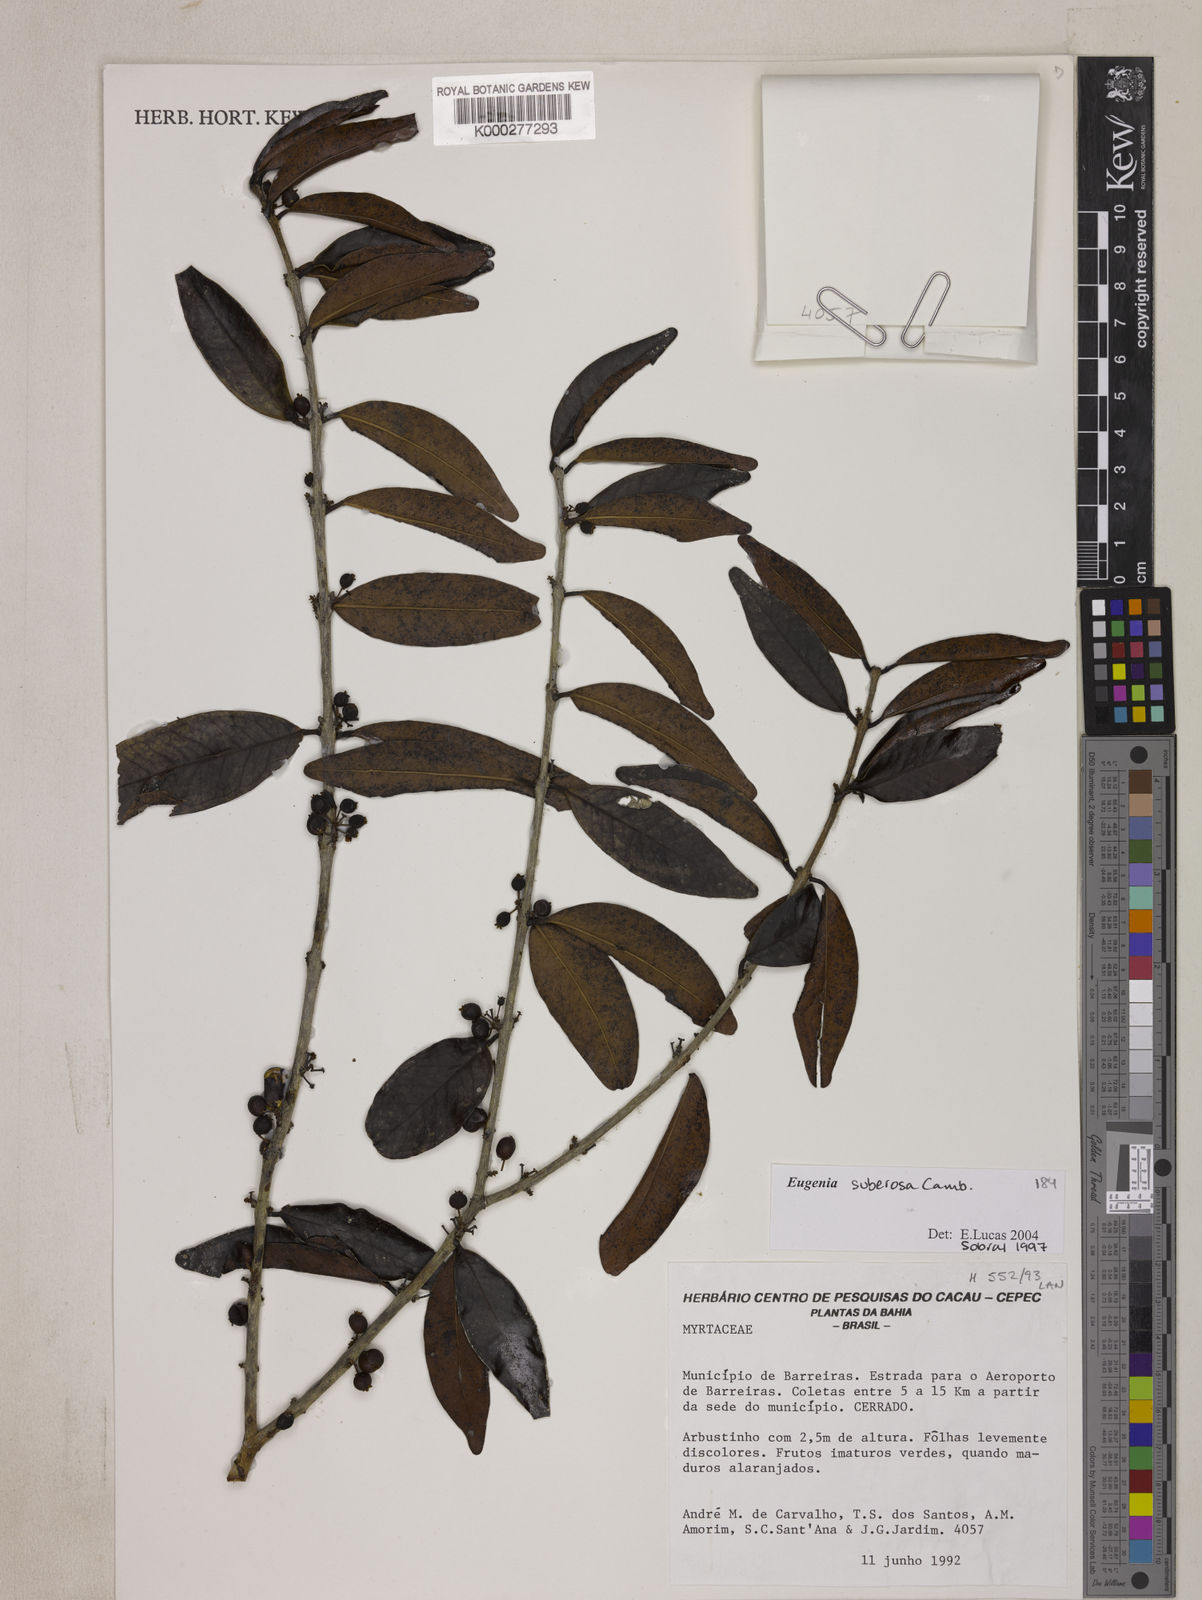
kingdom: Plantae
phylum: Tracheophyta
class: Magnoliopsida
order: Myrtales
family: Myrtaceae
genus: Eugenia
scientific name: Eugenia suberosa
